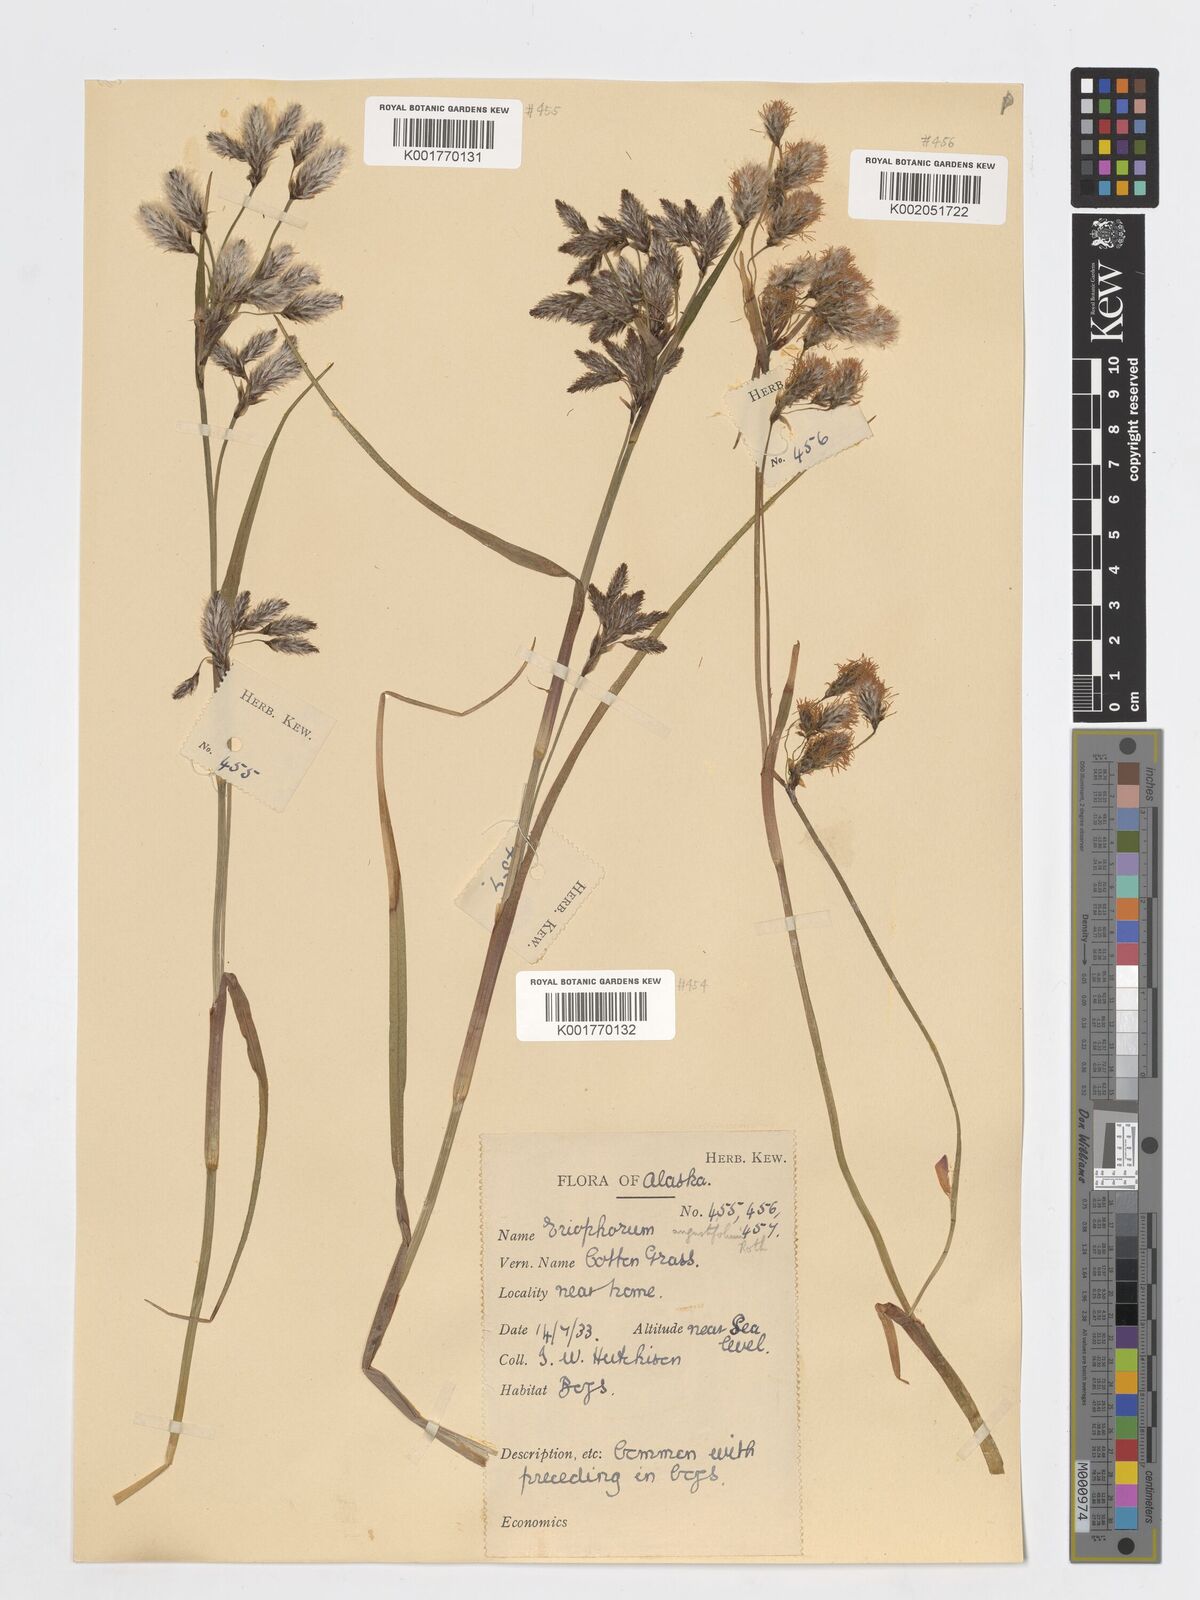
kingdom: Plantae
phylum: Tracheophyta
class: Liliopsida
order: Poales
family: Cyperaceae
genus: Eriophorum
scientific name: Eriophorum angustifolium
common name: Common cottongrass
